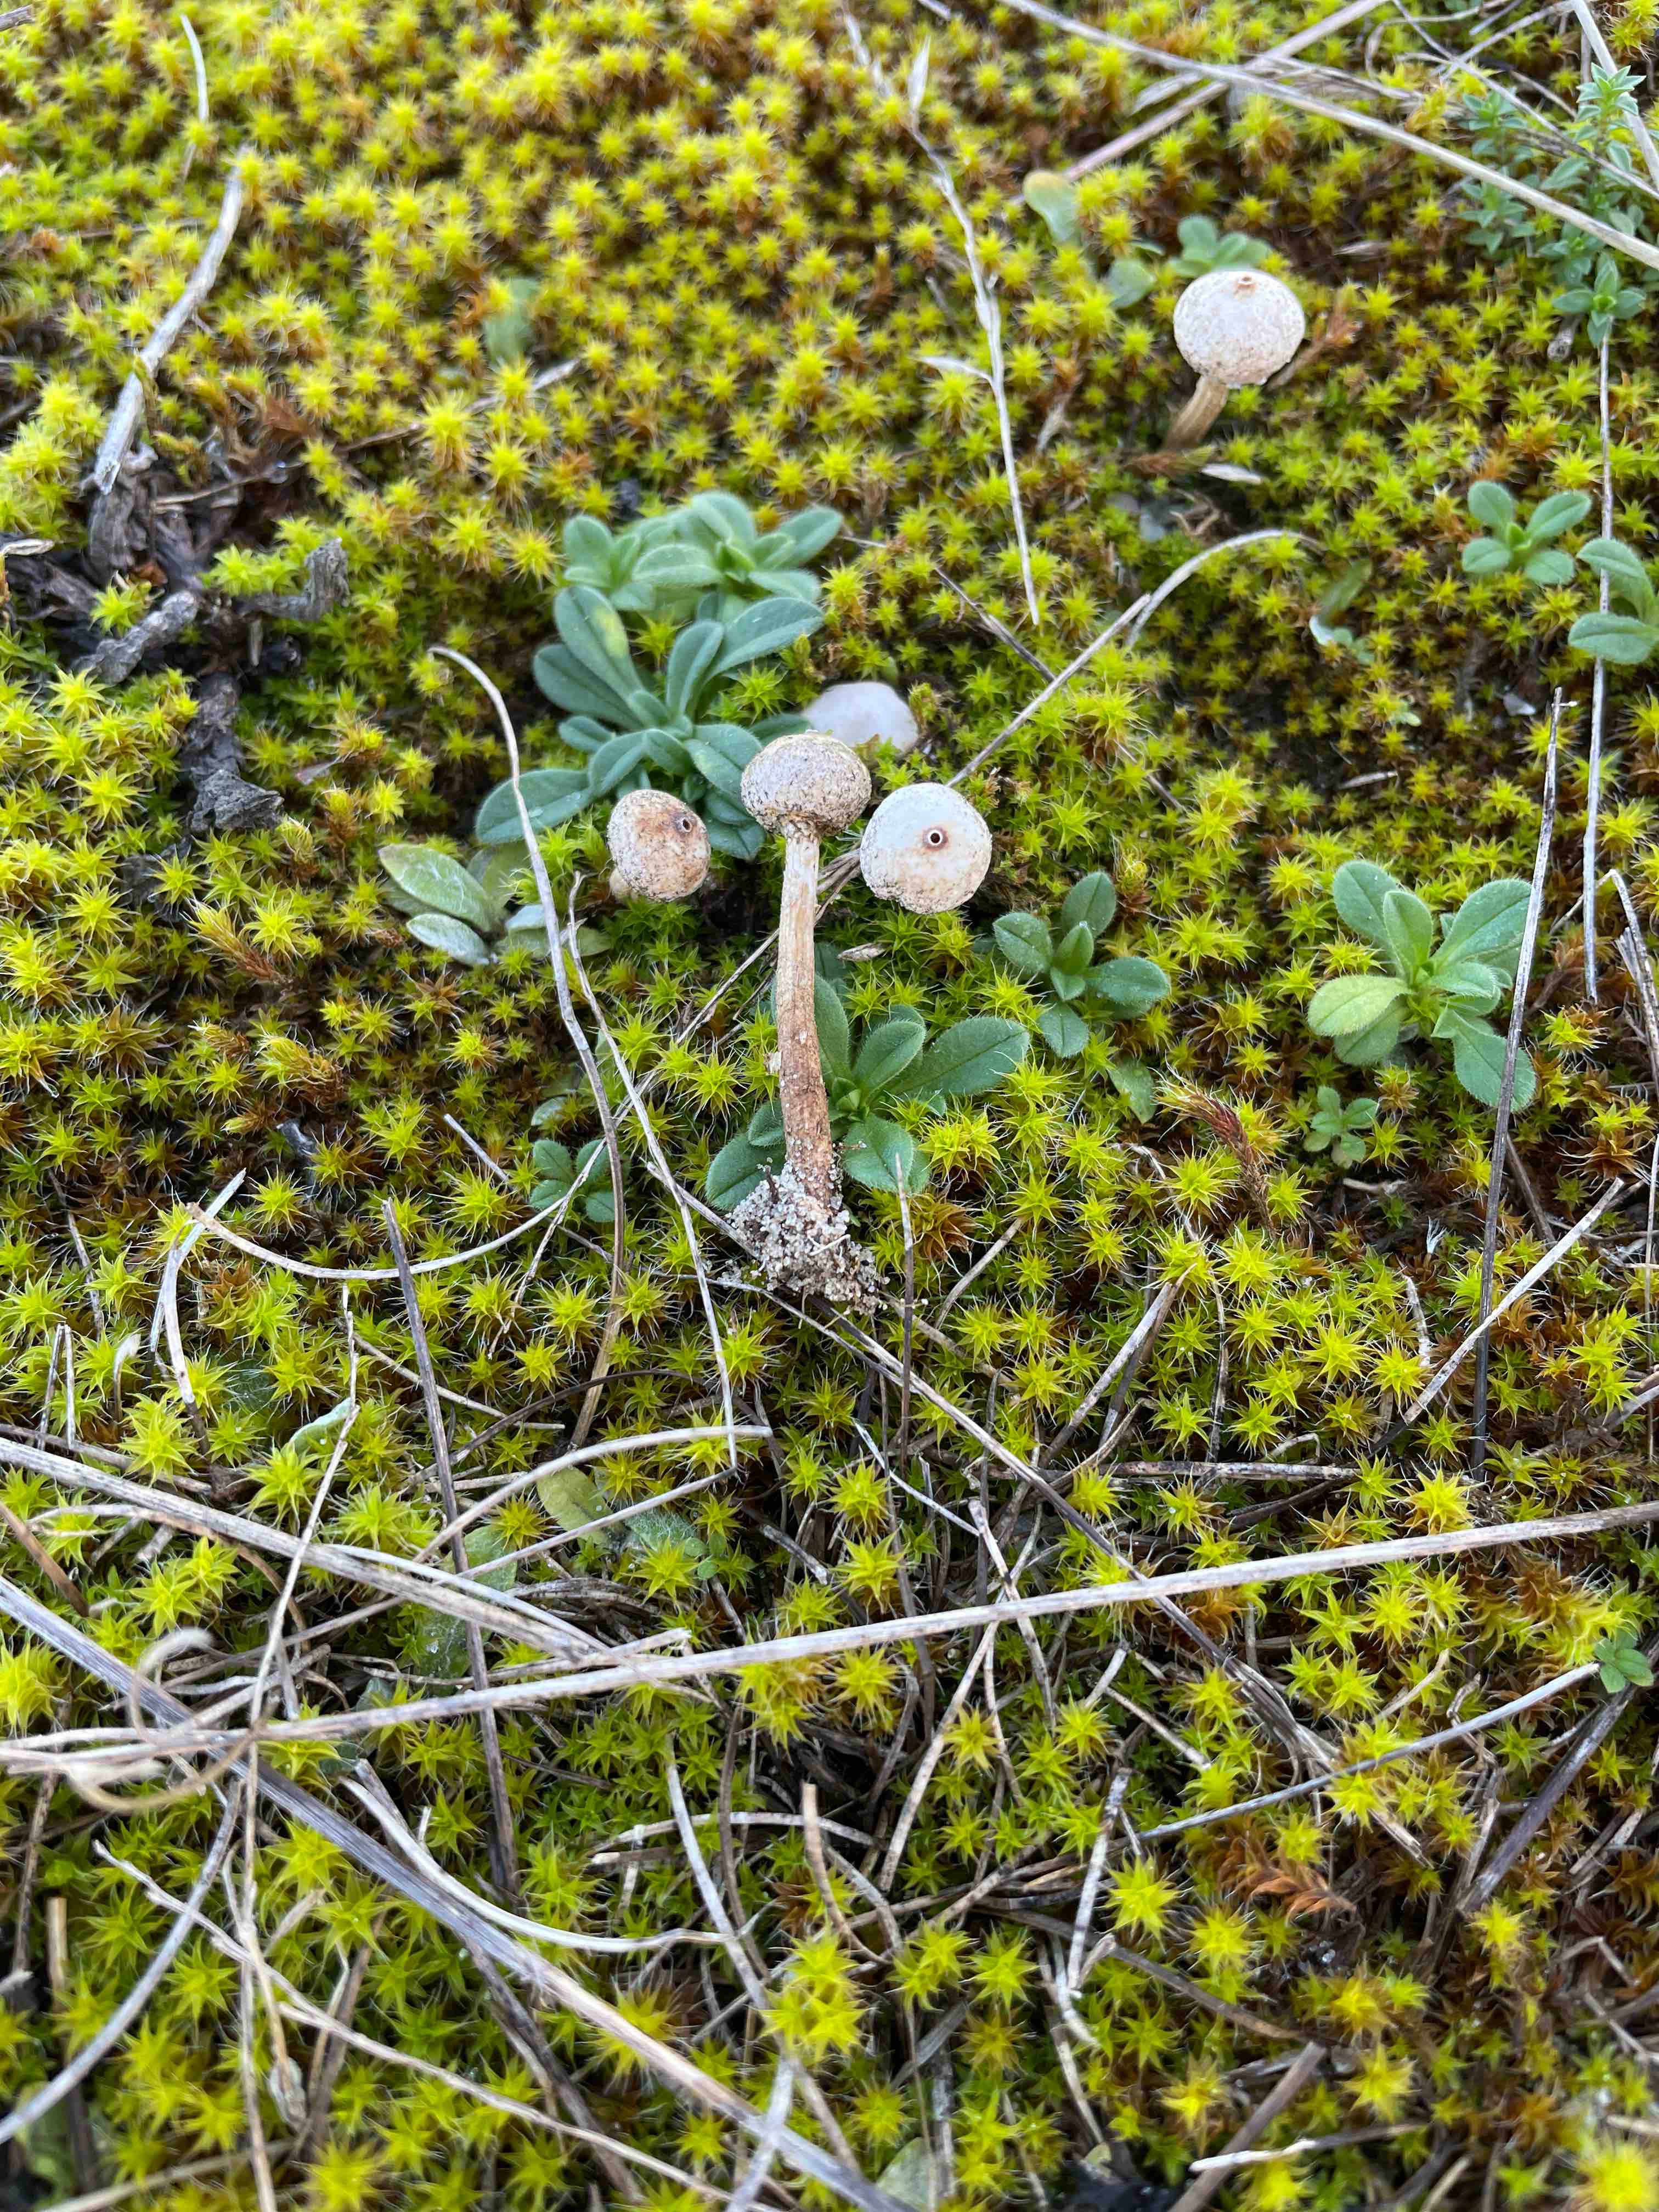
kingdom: Fungi
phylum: Basidiomycota
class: Agaricomycetes
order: Agaricales
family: Agaricaceae
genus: Tulostoma
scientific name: Tulostoma brumale
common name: vinter-stilkbovist
